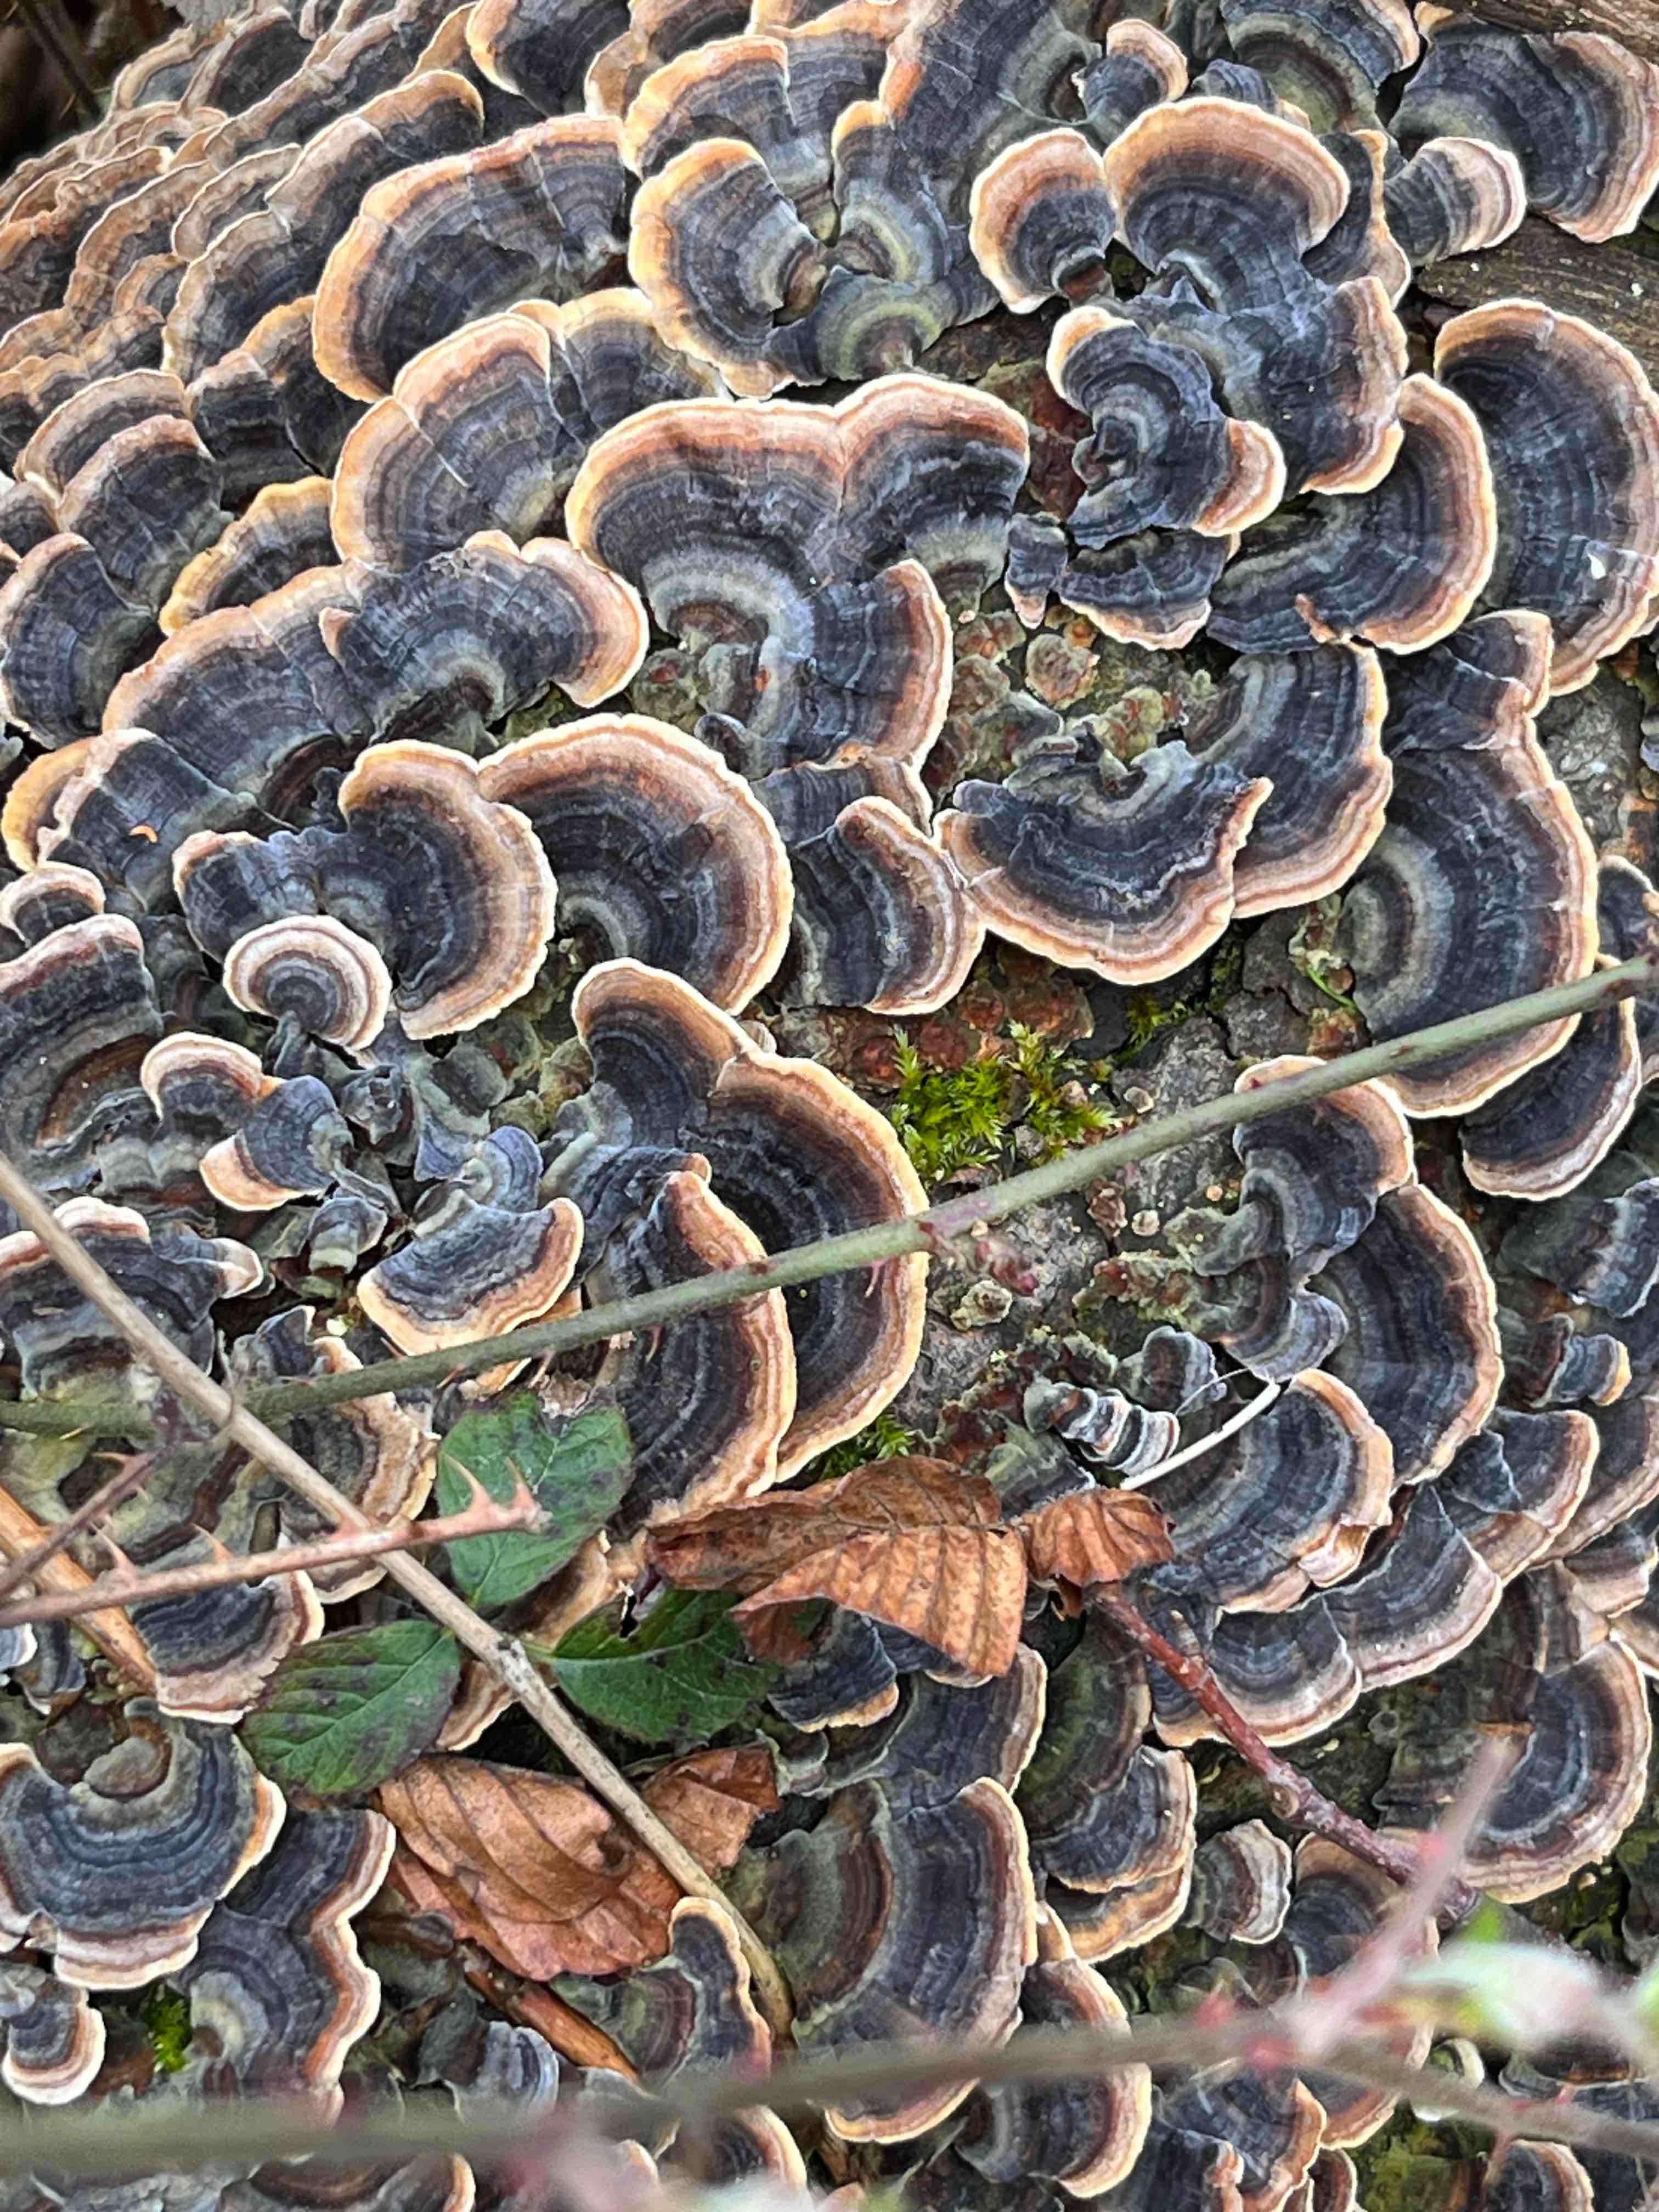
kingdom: Fungi
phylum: Basidiomycota
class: Agaricomycetes
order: Polyporales
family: Polyporaceae
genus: Trametes
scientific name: Trametes versicolor
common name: broget læderporesvamp
